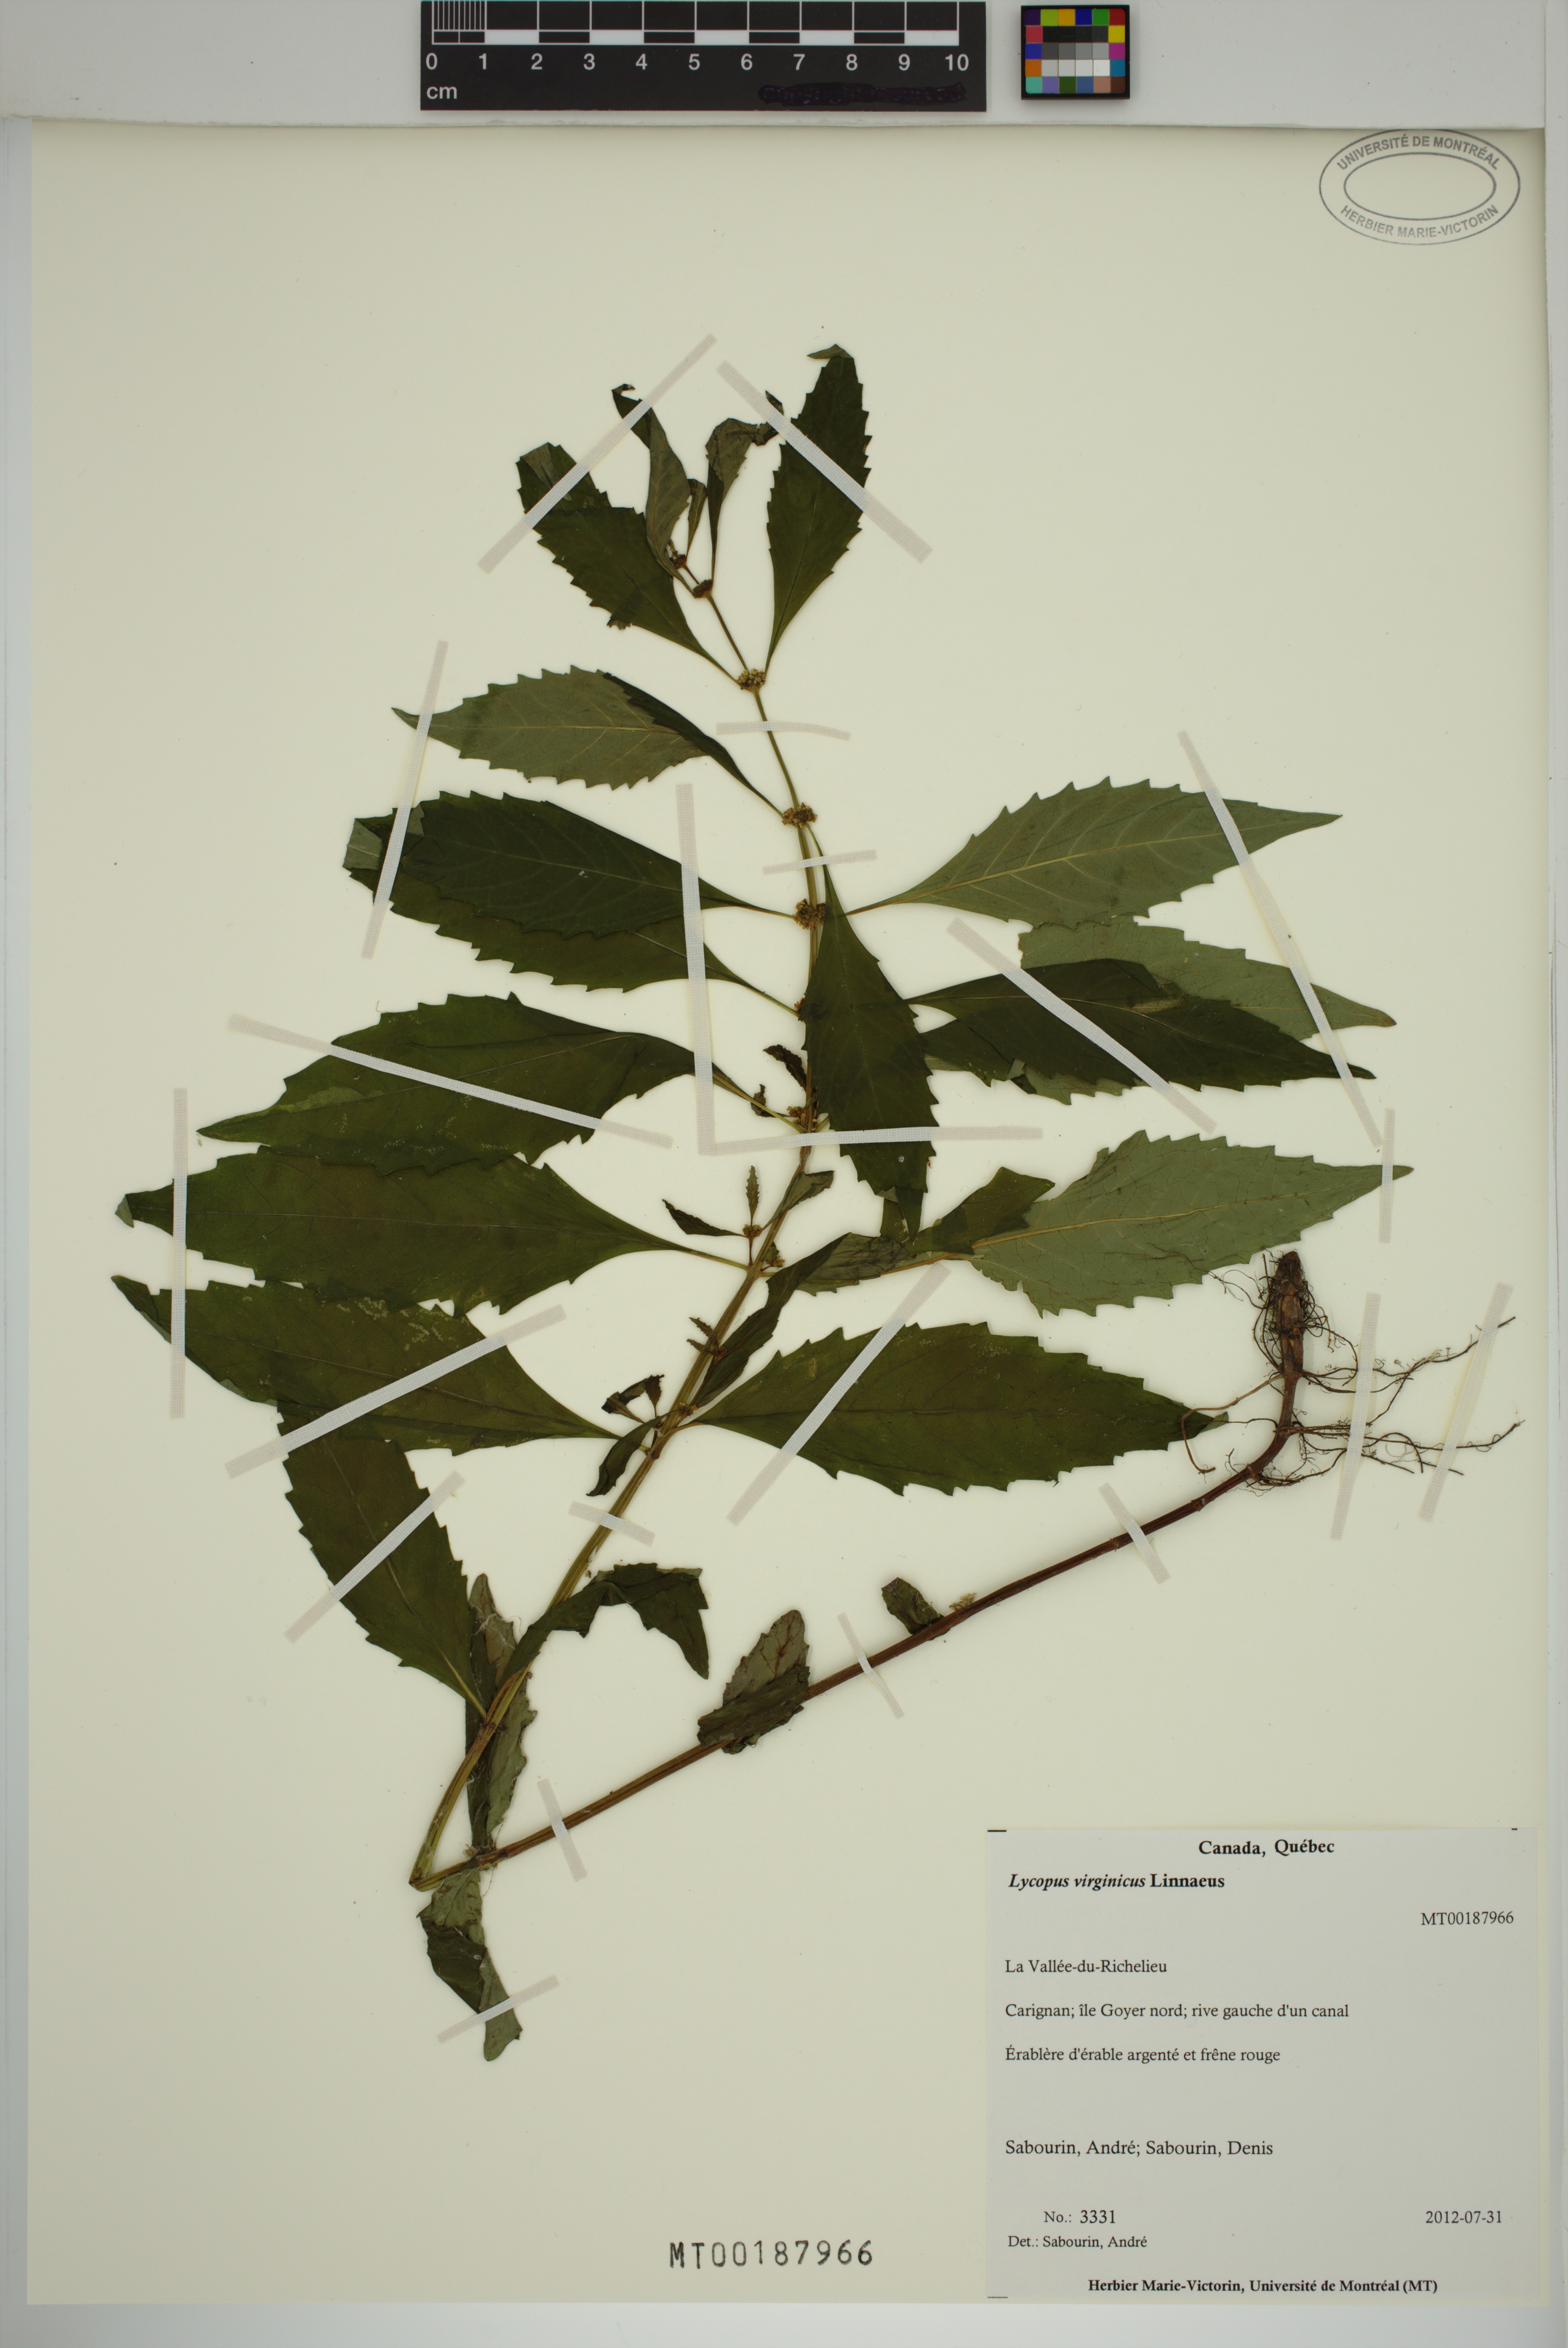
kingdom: Plantae
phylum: Tracheophyta
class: Magnoliopsida
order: Lamiales
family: Lamiaceae
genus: Lycopus
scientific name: Lycopus virginicus
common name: Bugleweed
